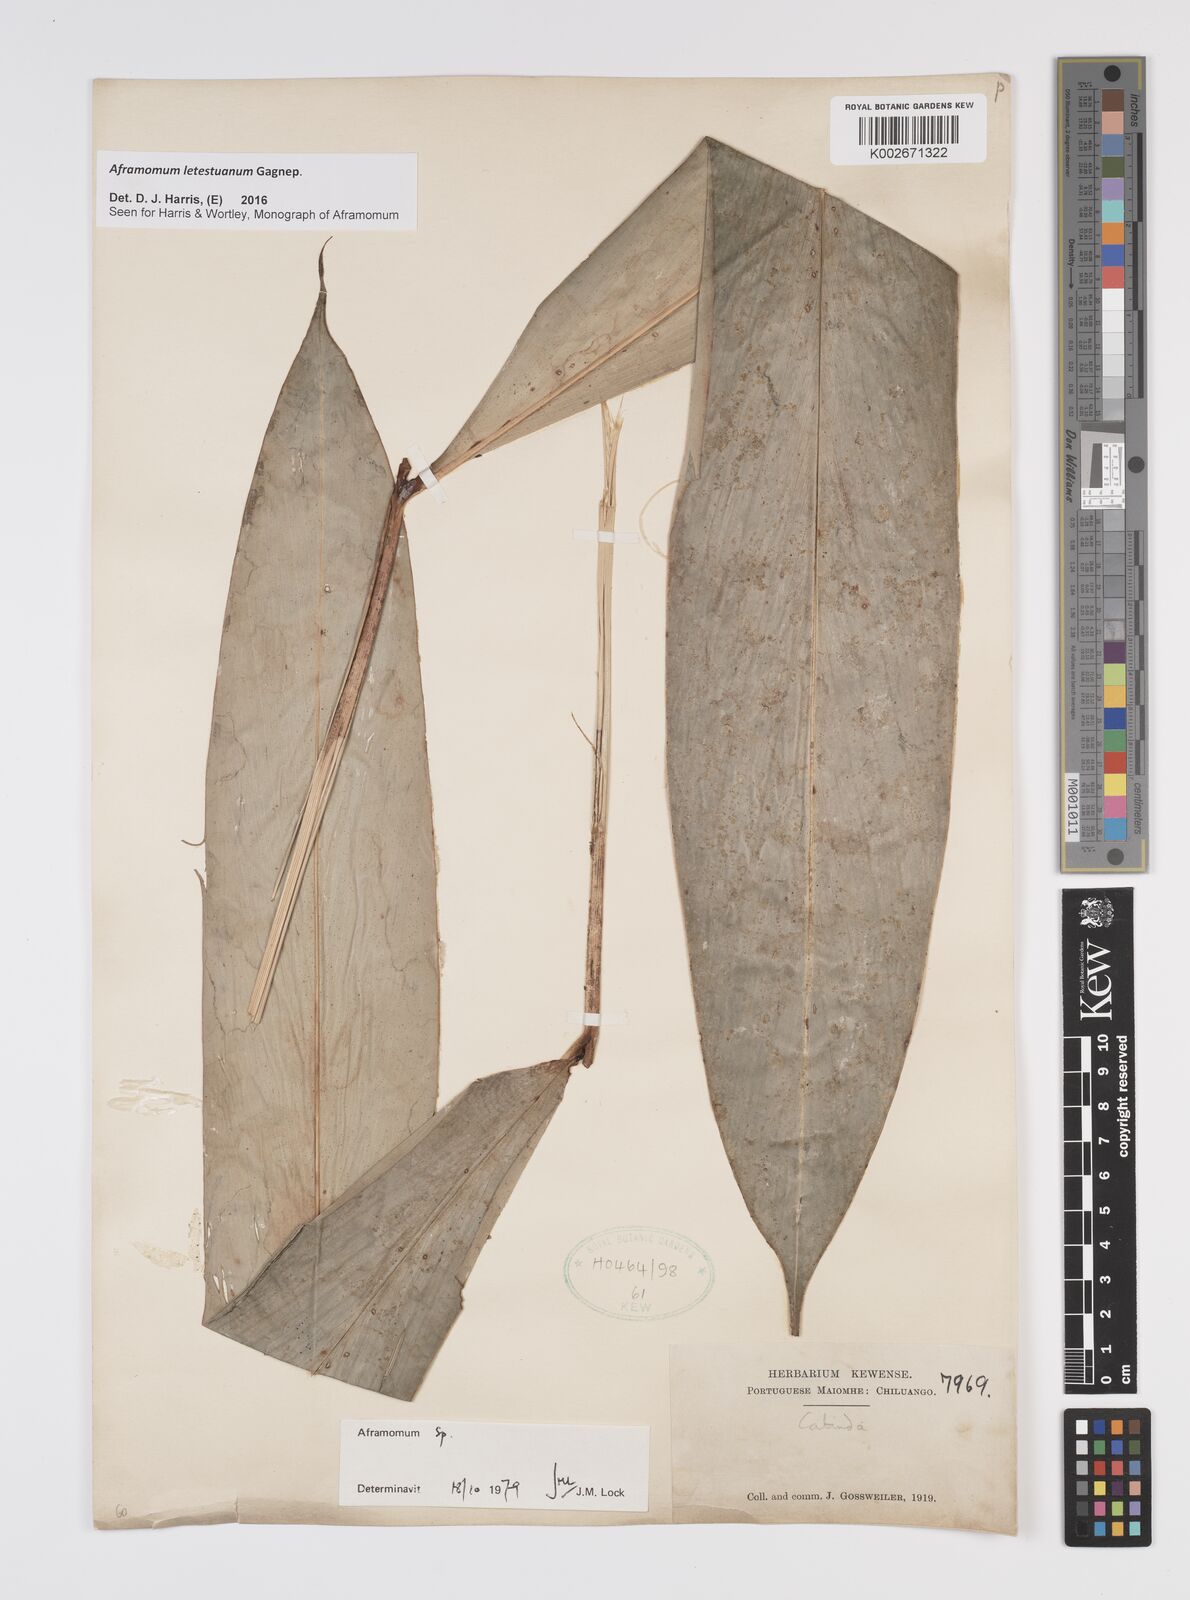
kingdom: Plantae
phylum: Tracheophyta
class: Liliopsida
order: Zingiberales
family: Zingiberaceae
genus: Aframomum
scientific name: Aframomum letestuanum
